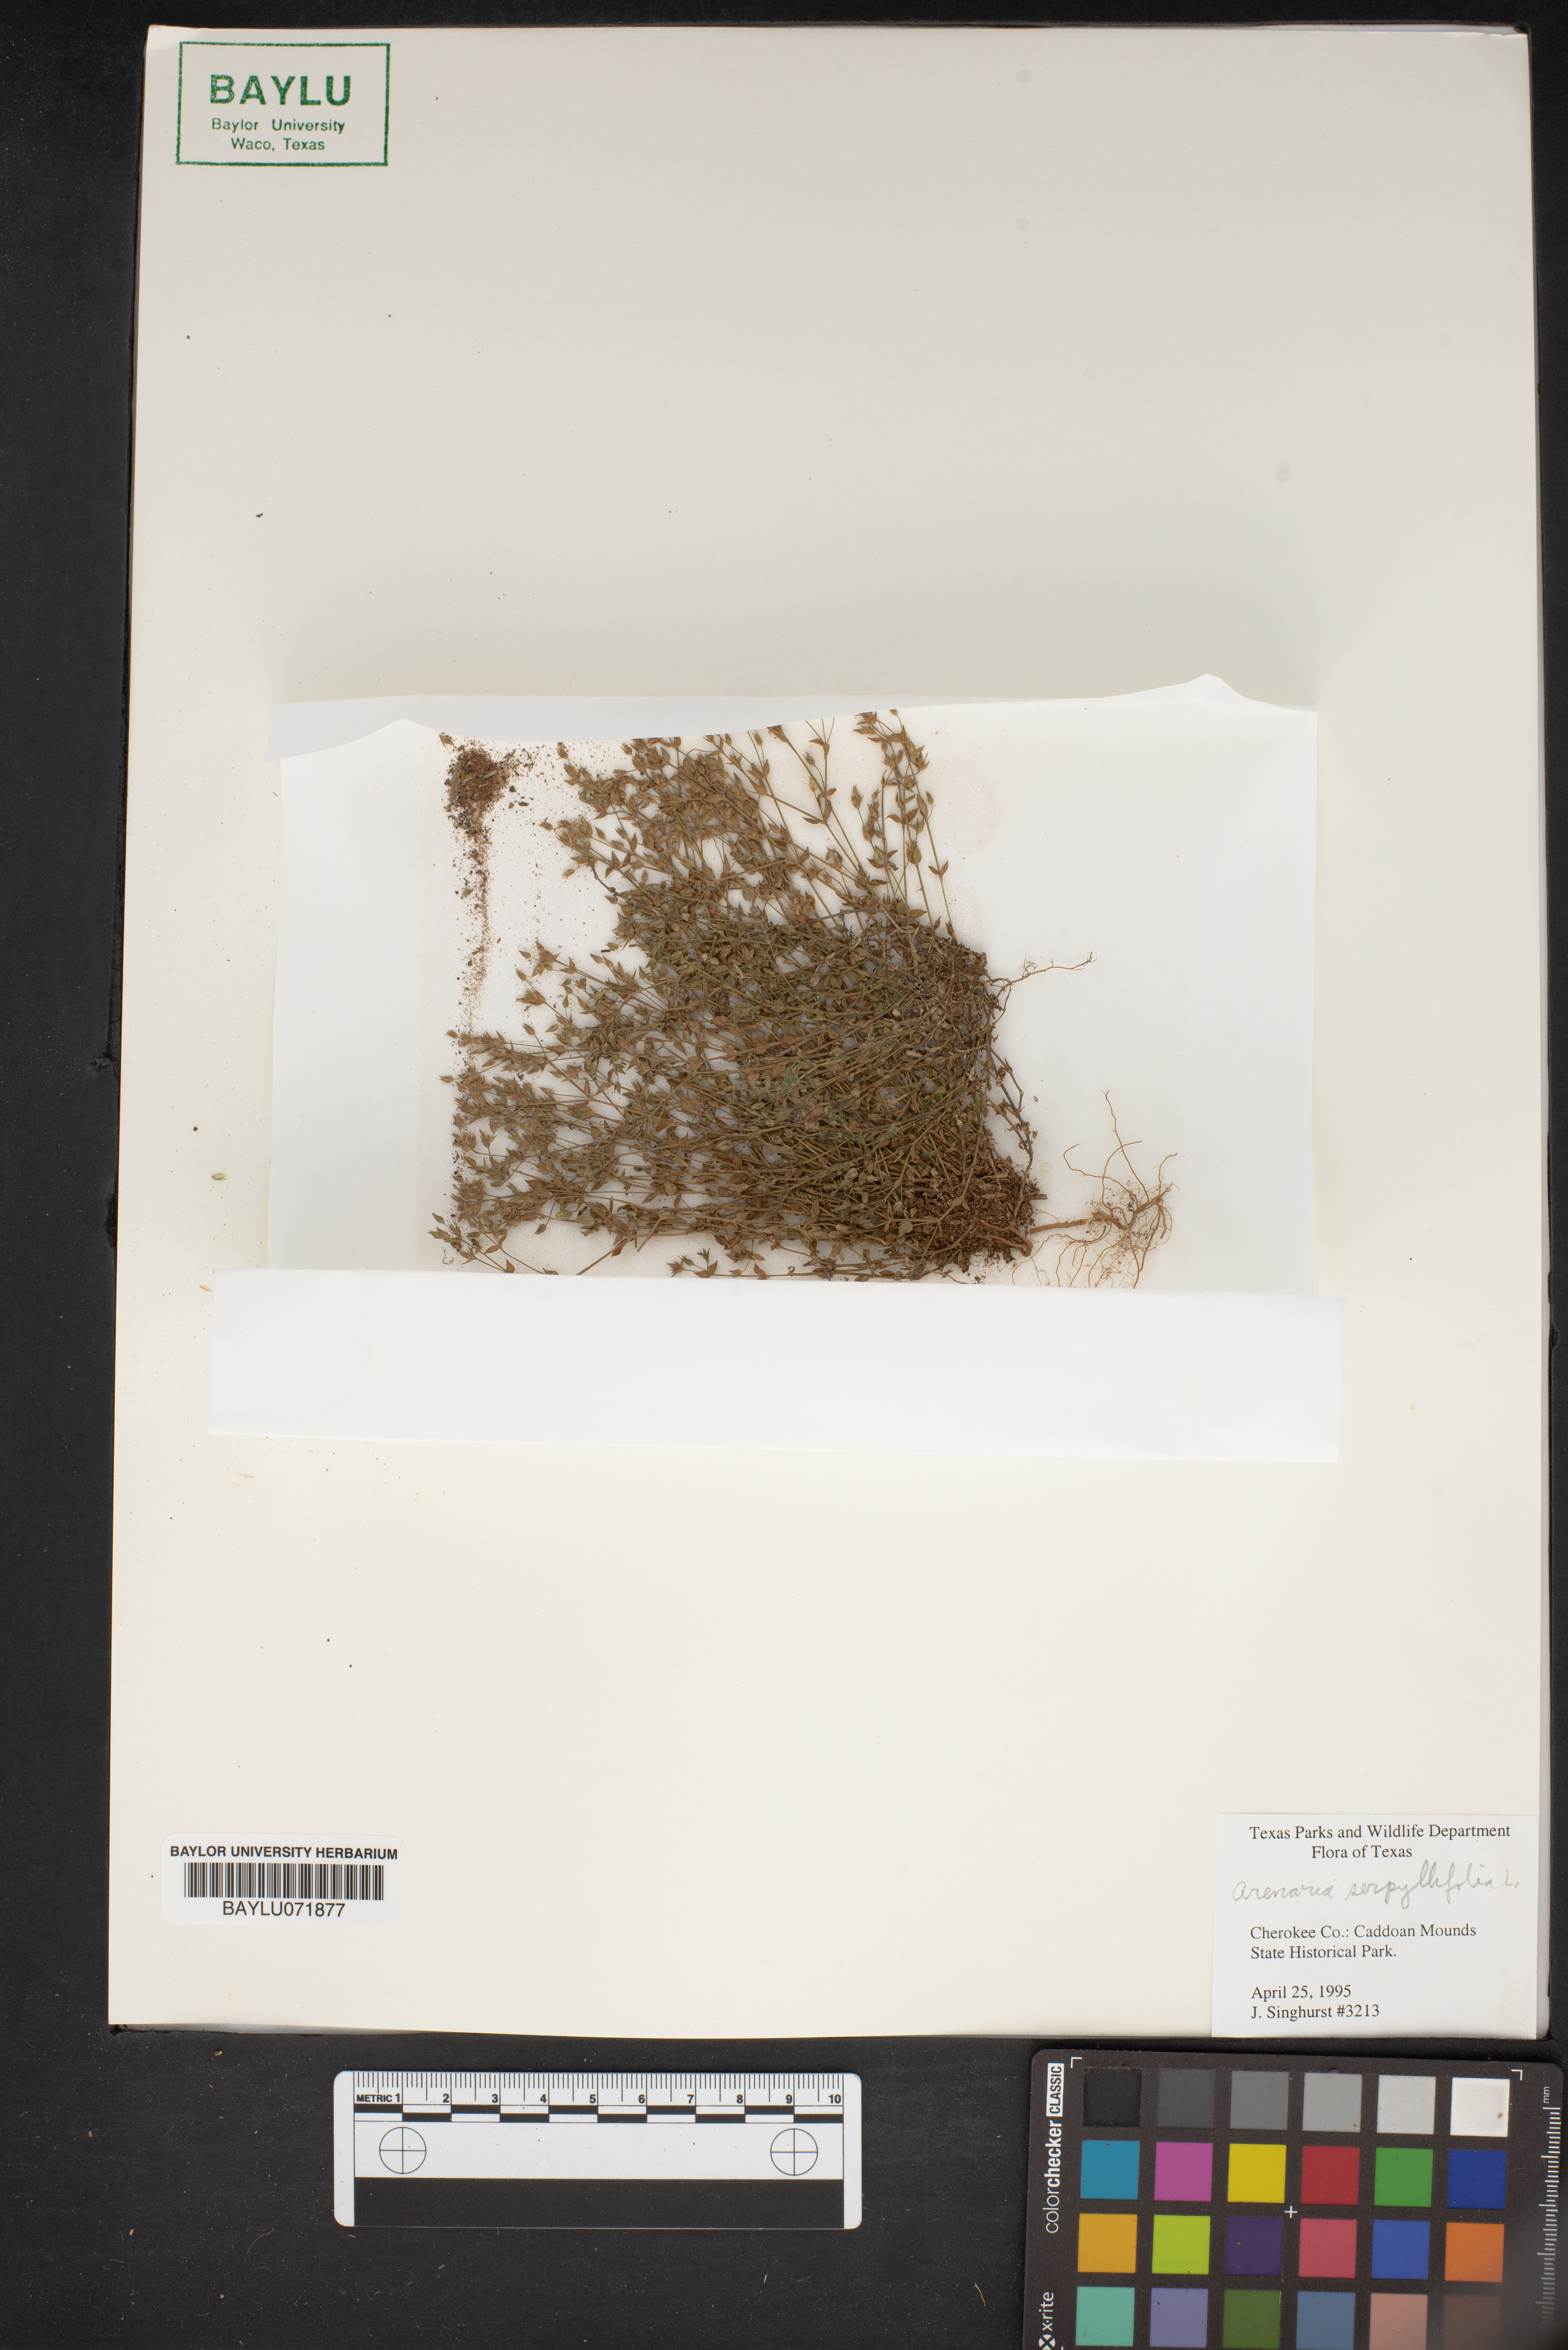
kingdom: Plantae
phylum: Tracheophyta
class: Magnoliopsida
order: Caryophyllales
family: Caryophyllaceae
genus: Arenaria
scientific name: Arenaria serpyllifolia
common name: Thyme-leaved sandwort
